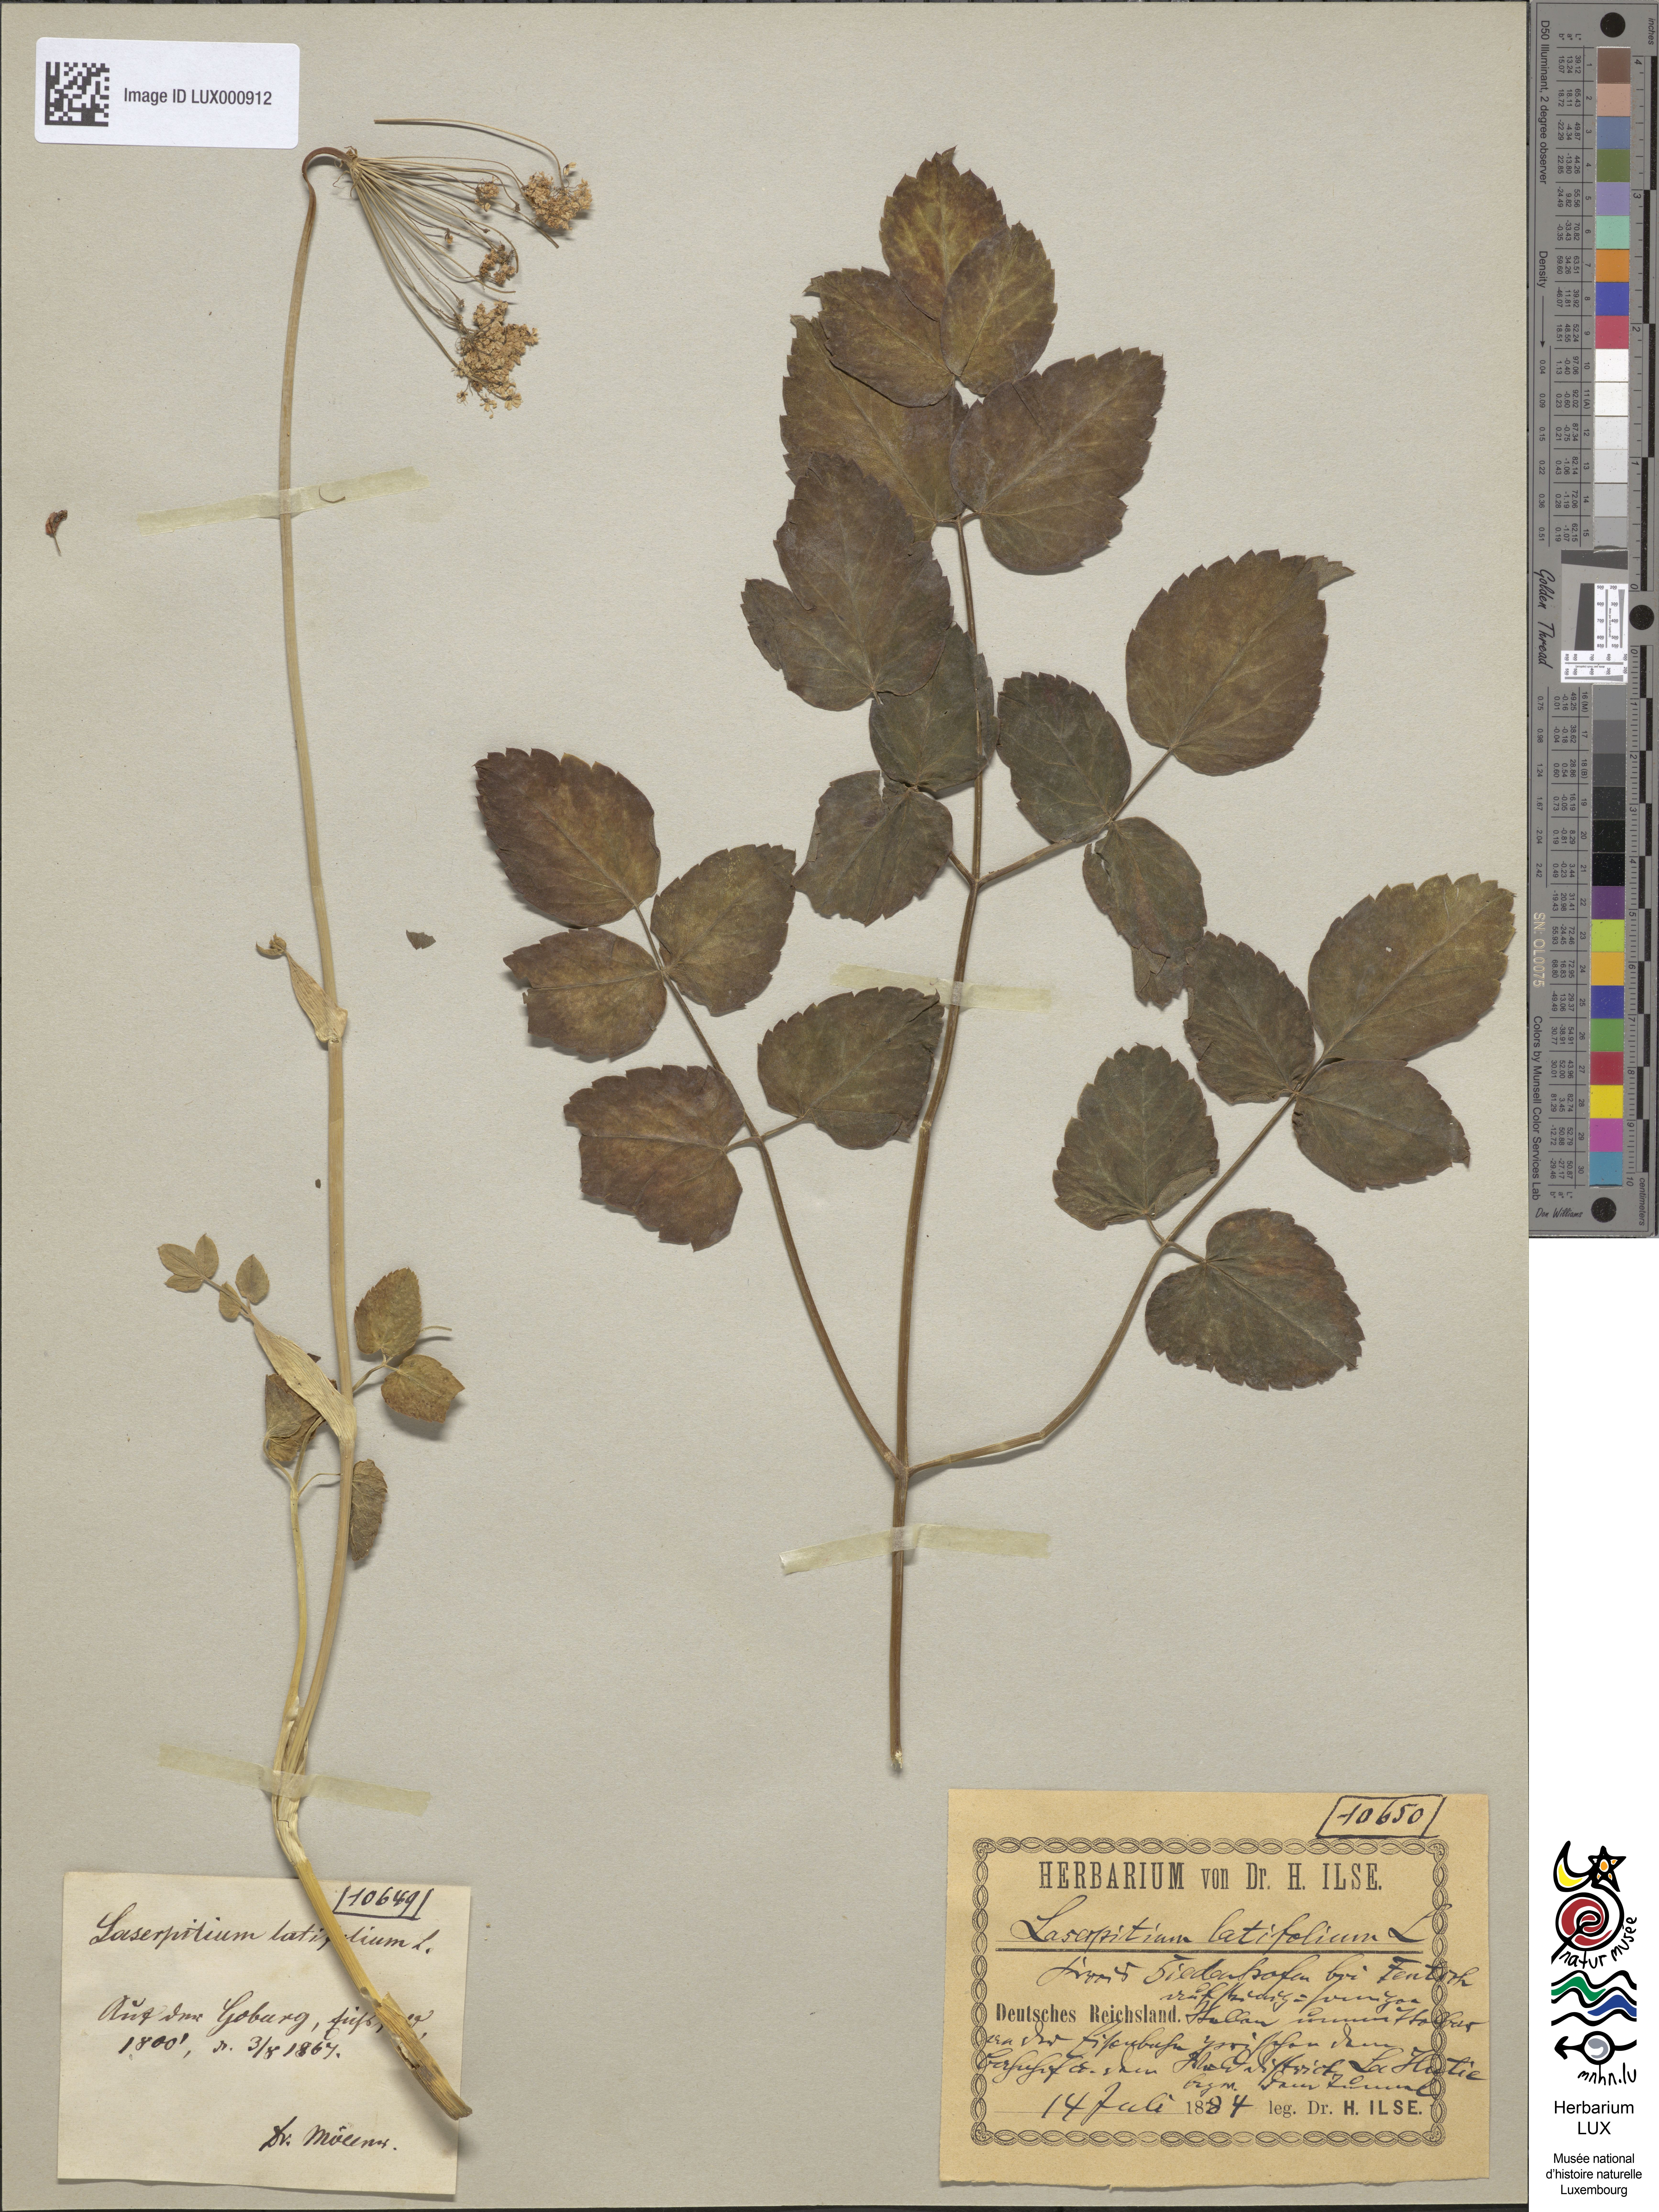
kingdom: Plantae
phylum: Tracheophyta
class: Magnoliopsida
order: Apiales
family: Apiaceae
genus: Laserpitium
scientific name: Laserpitium latifolium
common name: Broadleaf sermountain
